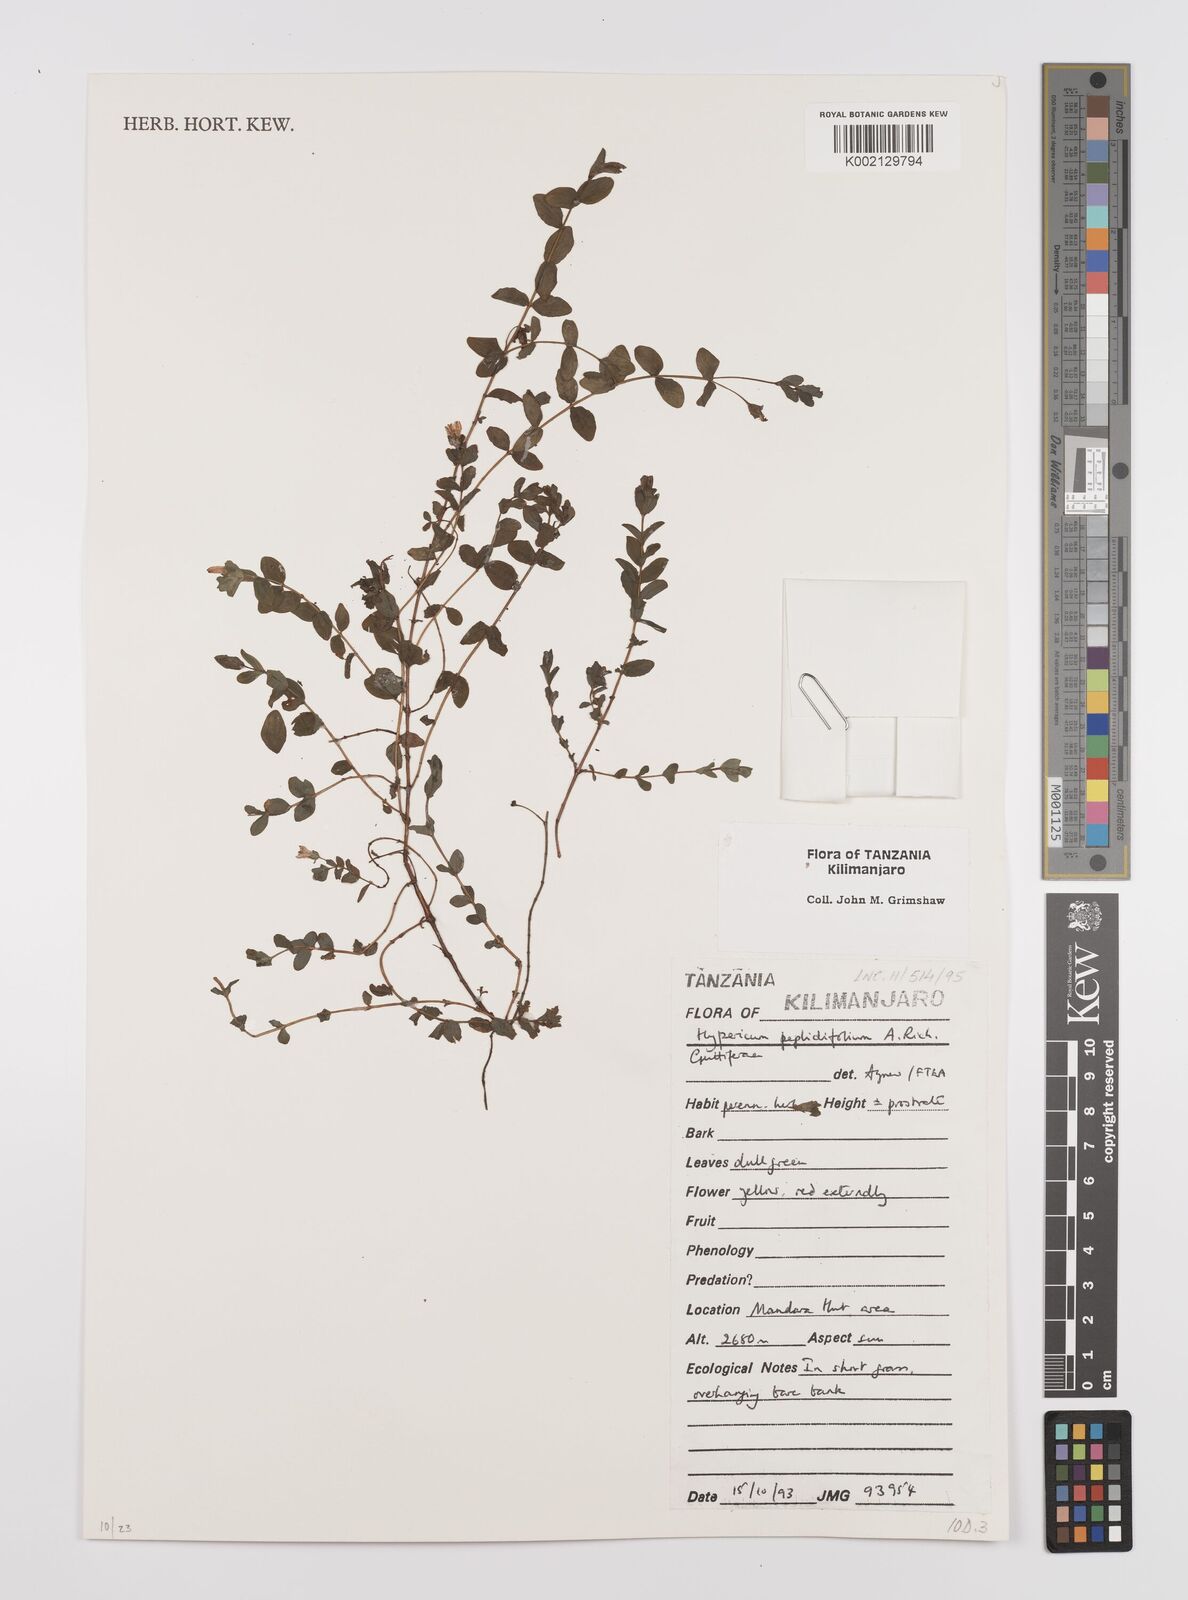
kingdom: Plantae
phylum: Tracheophyta
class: Magnoliopsida
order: Malpighiales
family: Hypericaceae
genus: Hypericum
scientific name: Hypericum peplidifolium
